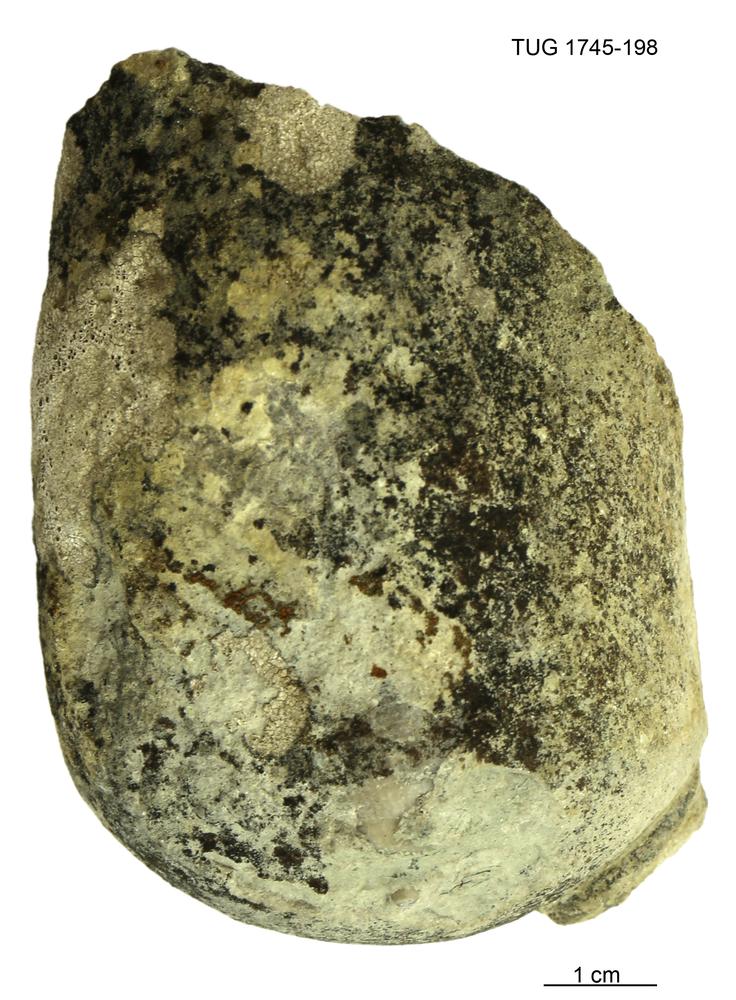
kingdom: Animalia
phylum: Mollusca
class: Cephalopoda
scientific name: Cephalopoda
